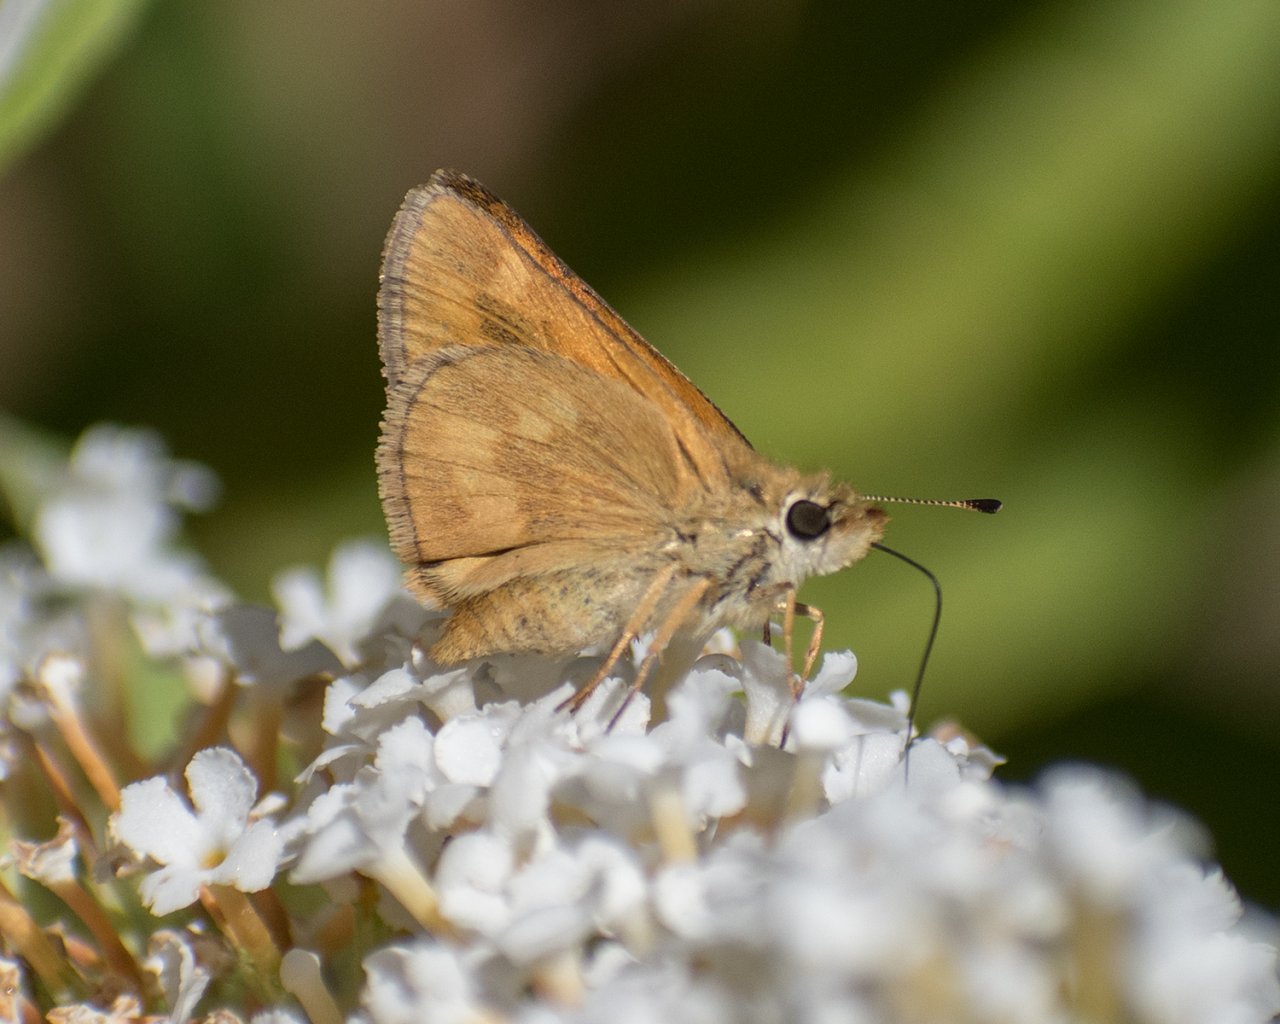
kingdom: Animalia
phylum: Arthropoda
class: Insecta
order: Lepidoptera
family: Hesperiidae
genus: Ochlodes
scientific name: Ochlodes sylvanoides
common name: Woodland Skipper
